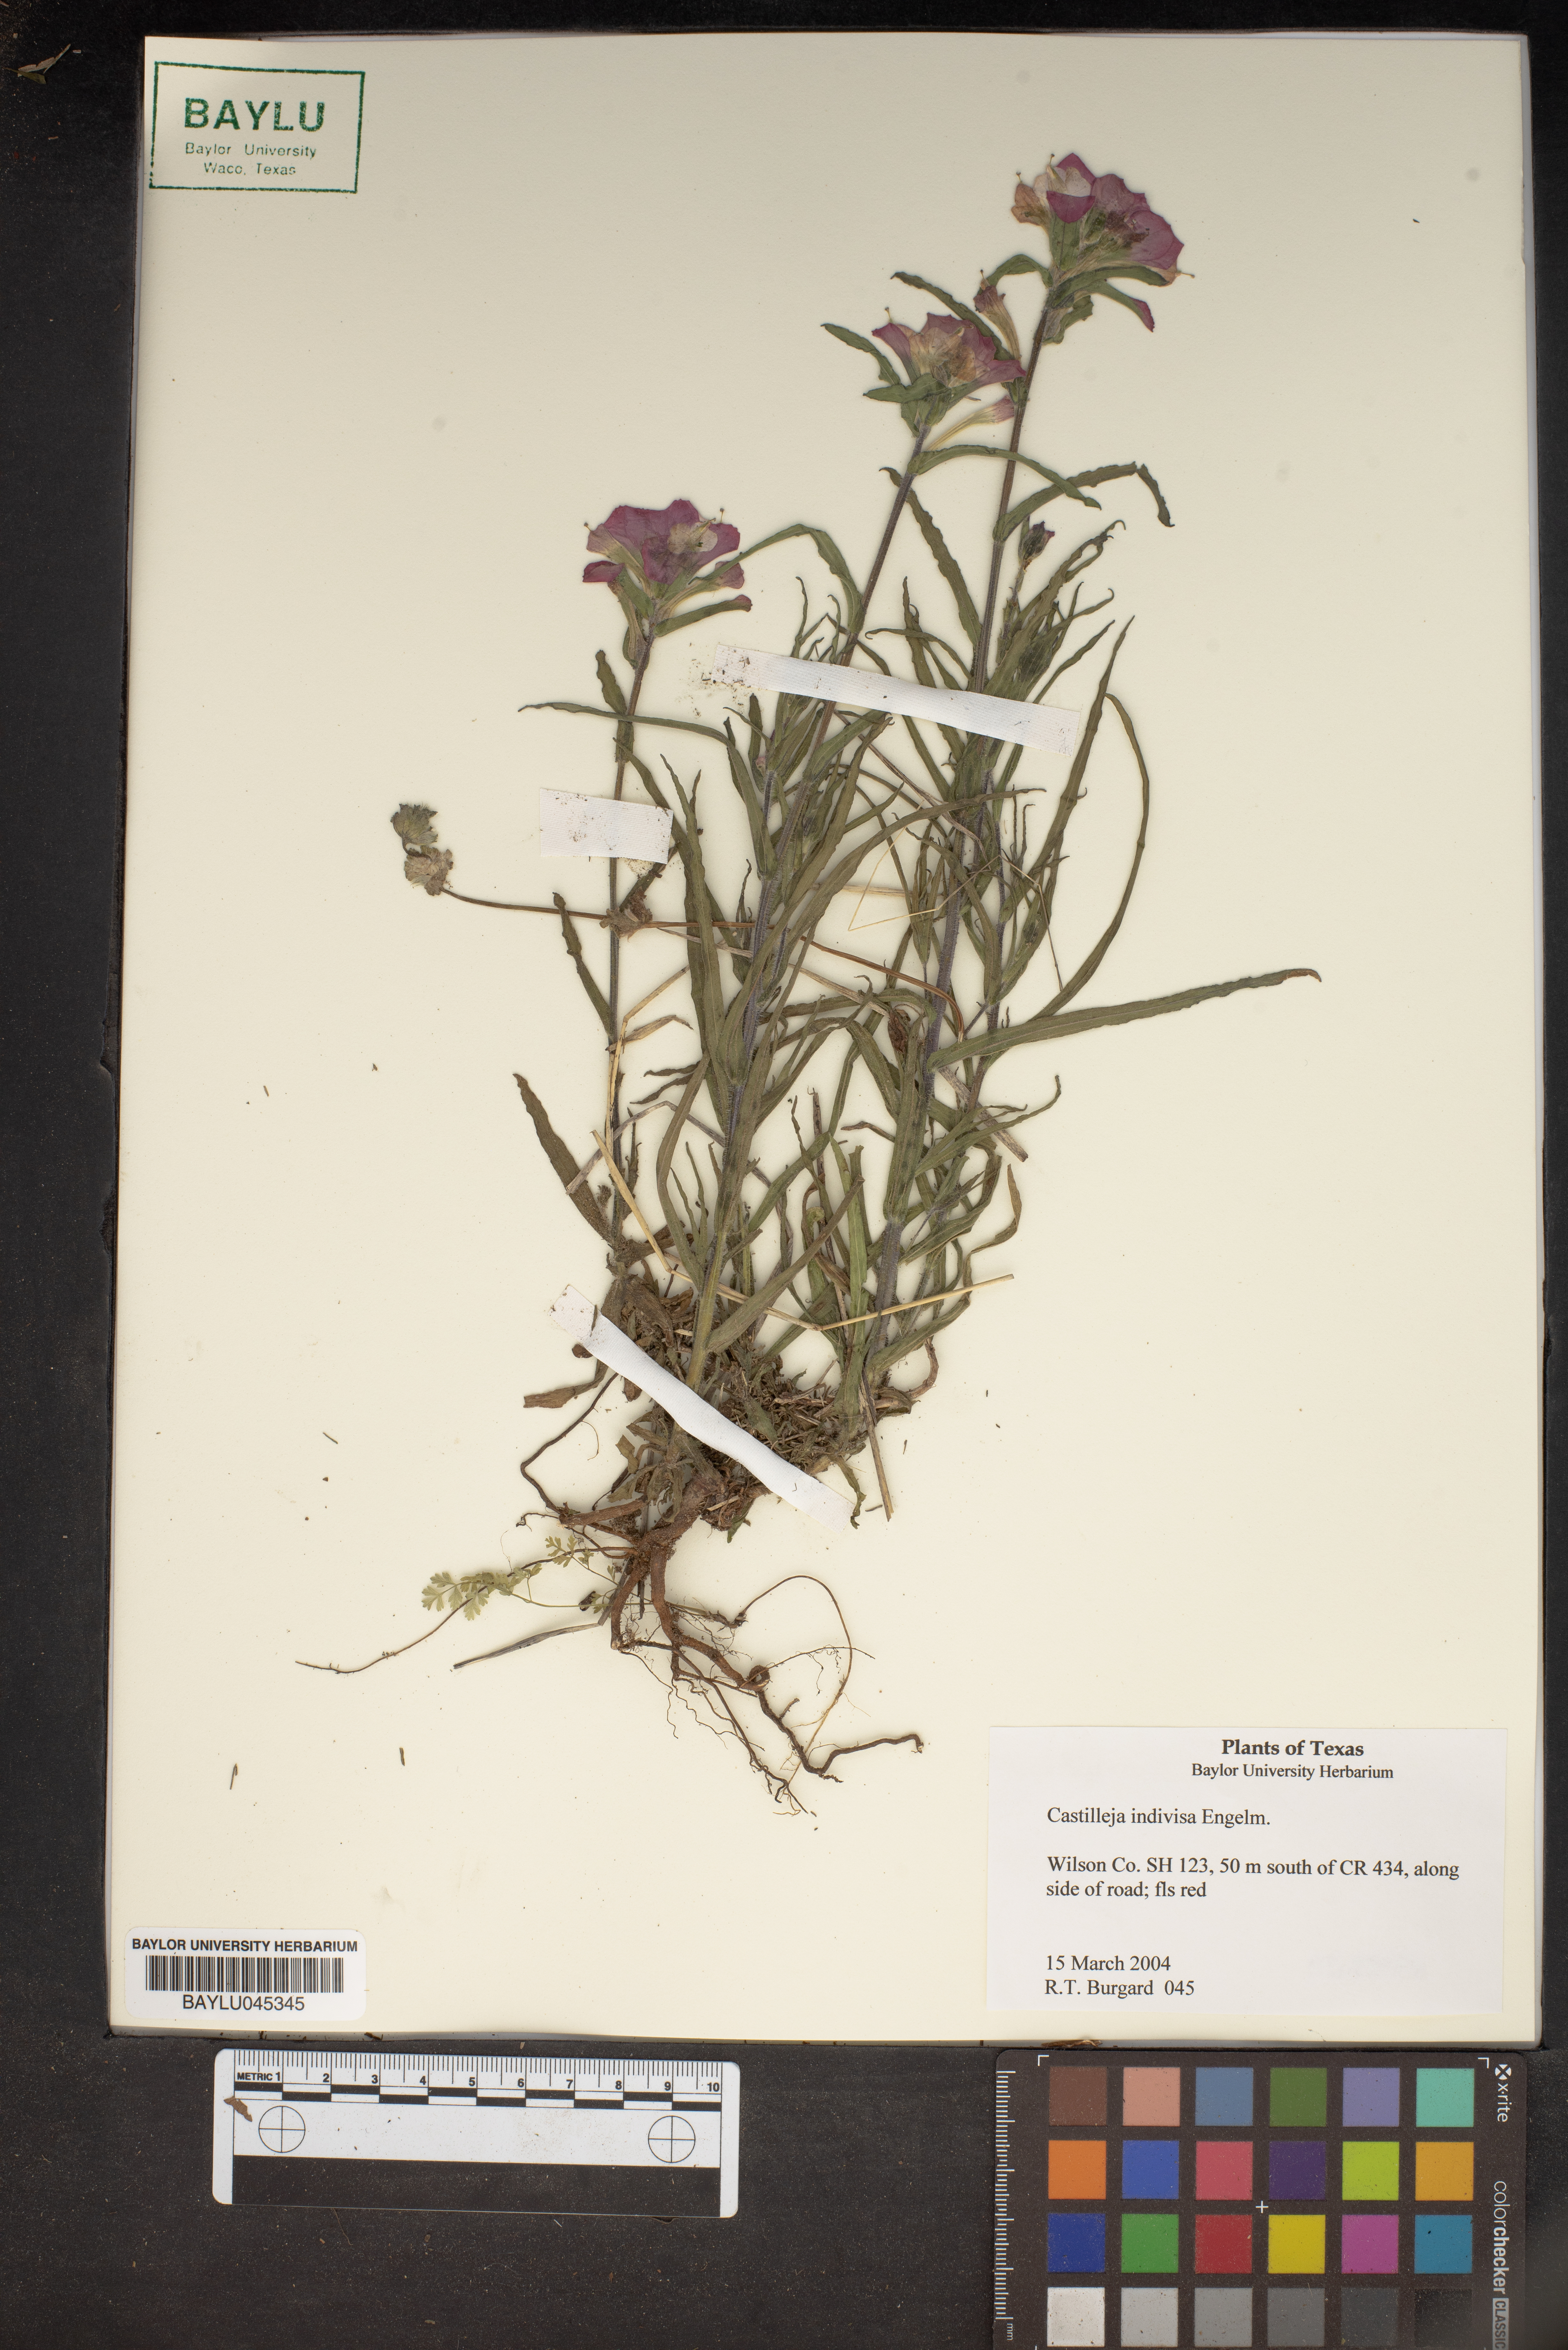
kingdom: Plantae
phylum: Tracheophyta
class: Magnoliopsida
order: Lamiales
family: Orobanchaceae
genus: Castilleja
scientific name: Castilleja indivisa
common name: Texas paintbrush
